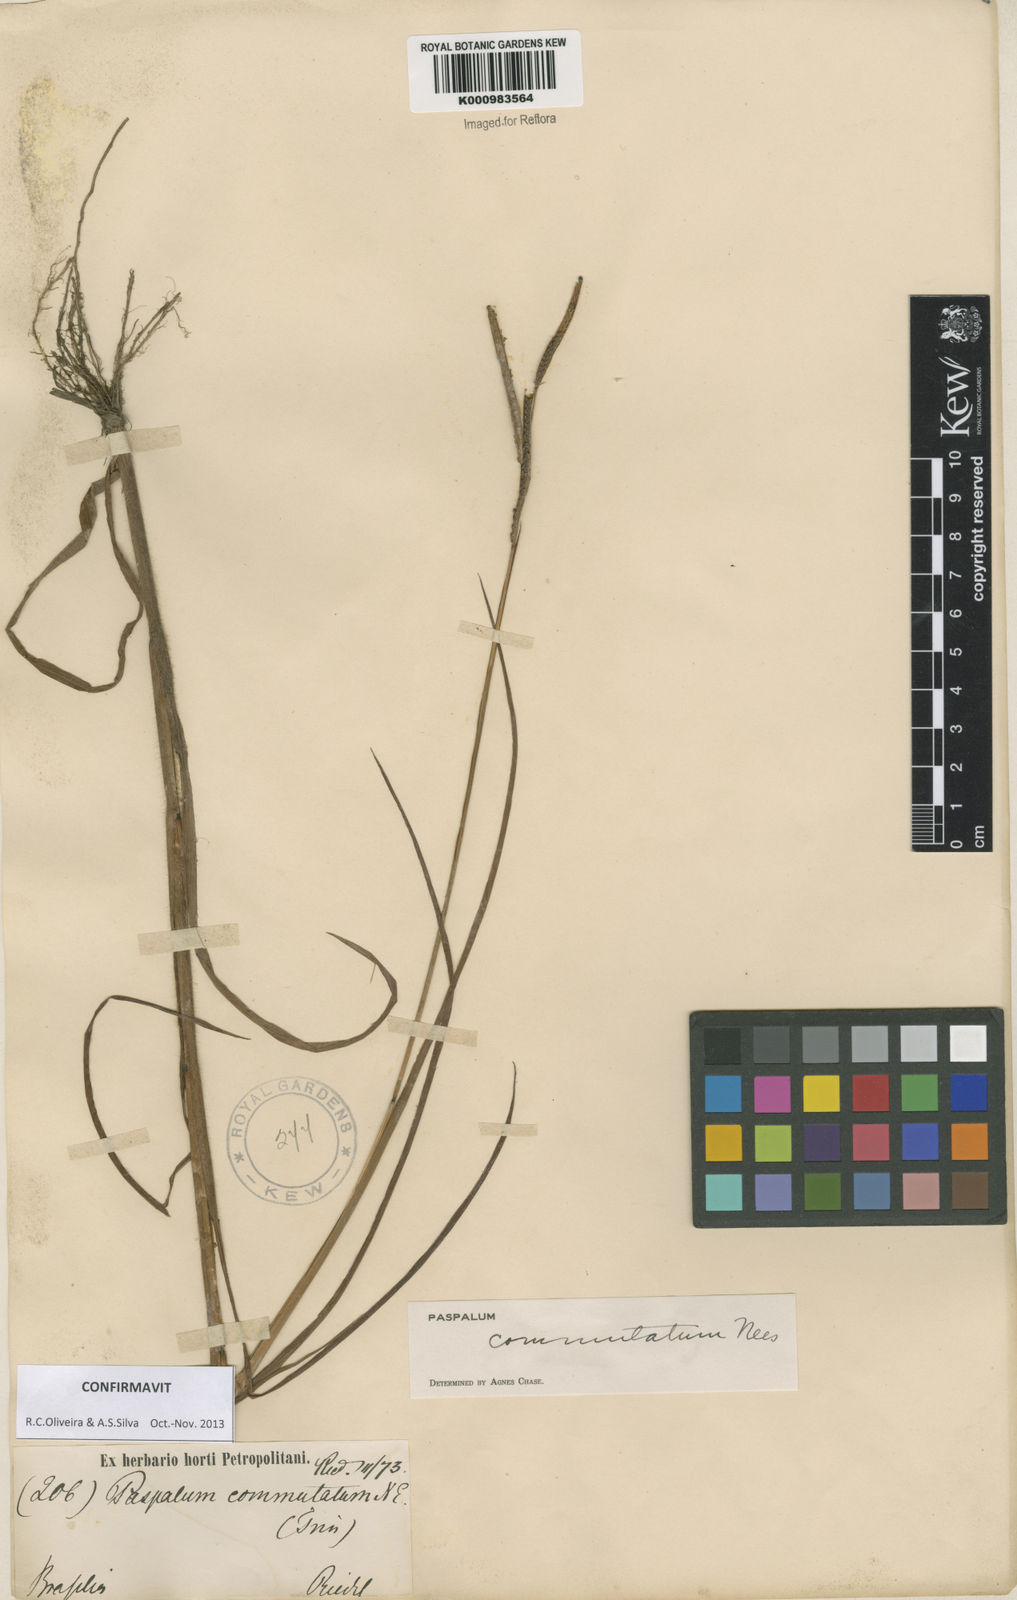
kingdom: Plantae
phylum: Tracheophyta
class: Liliopsida
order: Poales
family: Poaceae
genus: Paspalum
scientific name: Paspalum scrobiculatum
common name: Kodo millet
